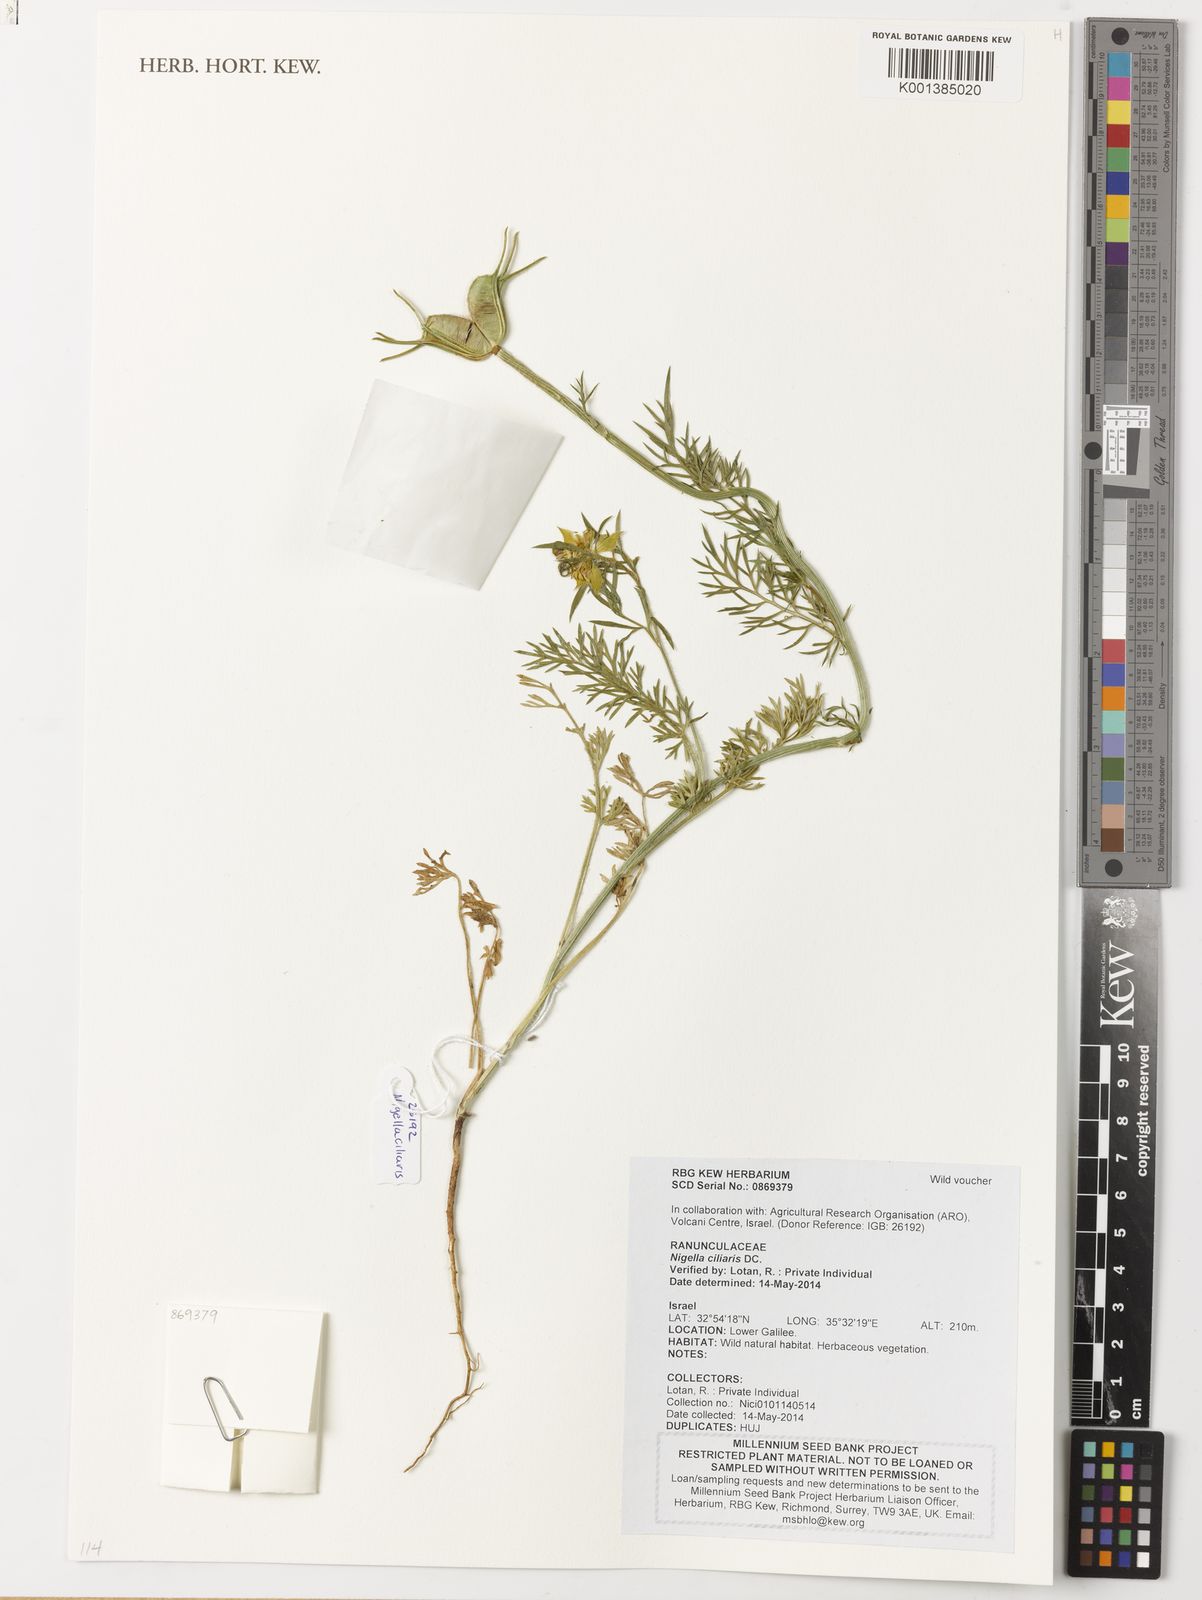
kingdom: Plantae
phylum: Tracheophyta
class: Magnoliopsida
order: Ranunculales
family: Ranunculaceae
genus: Nigella
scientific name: Nigella ciliaris
